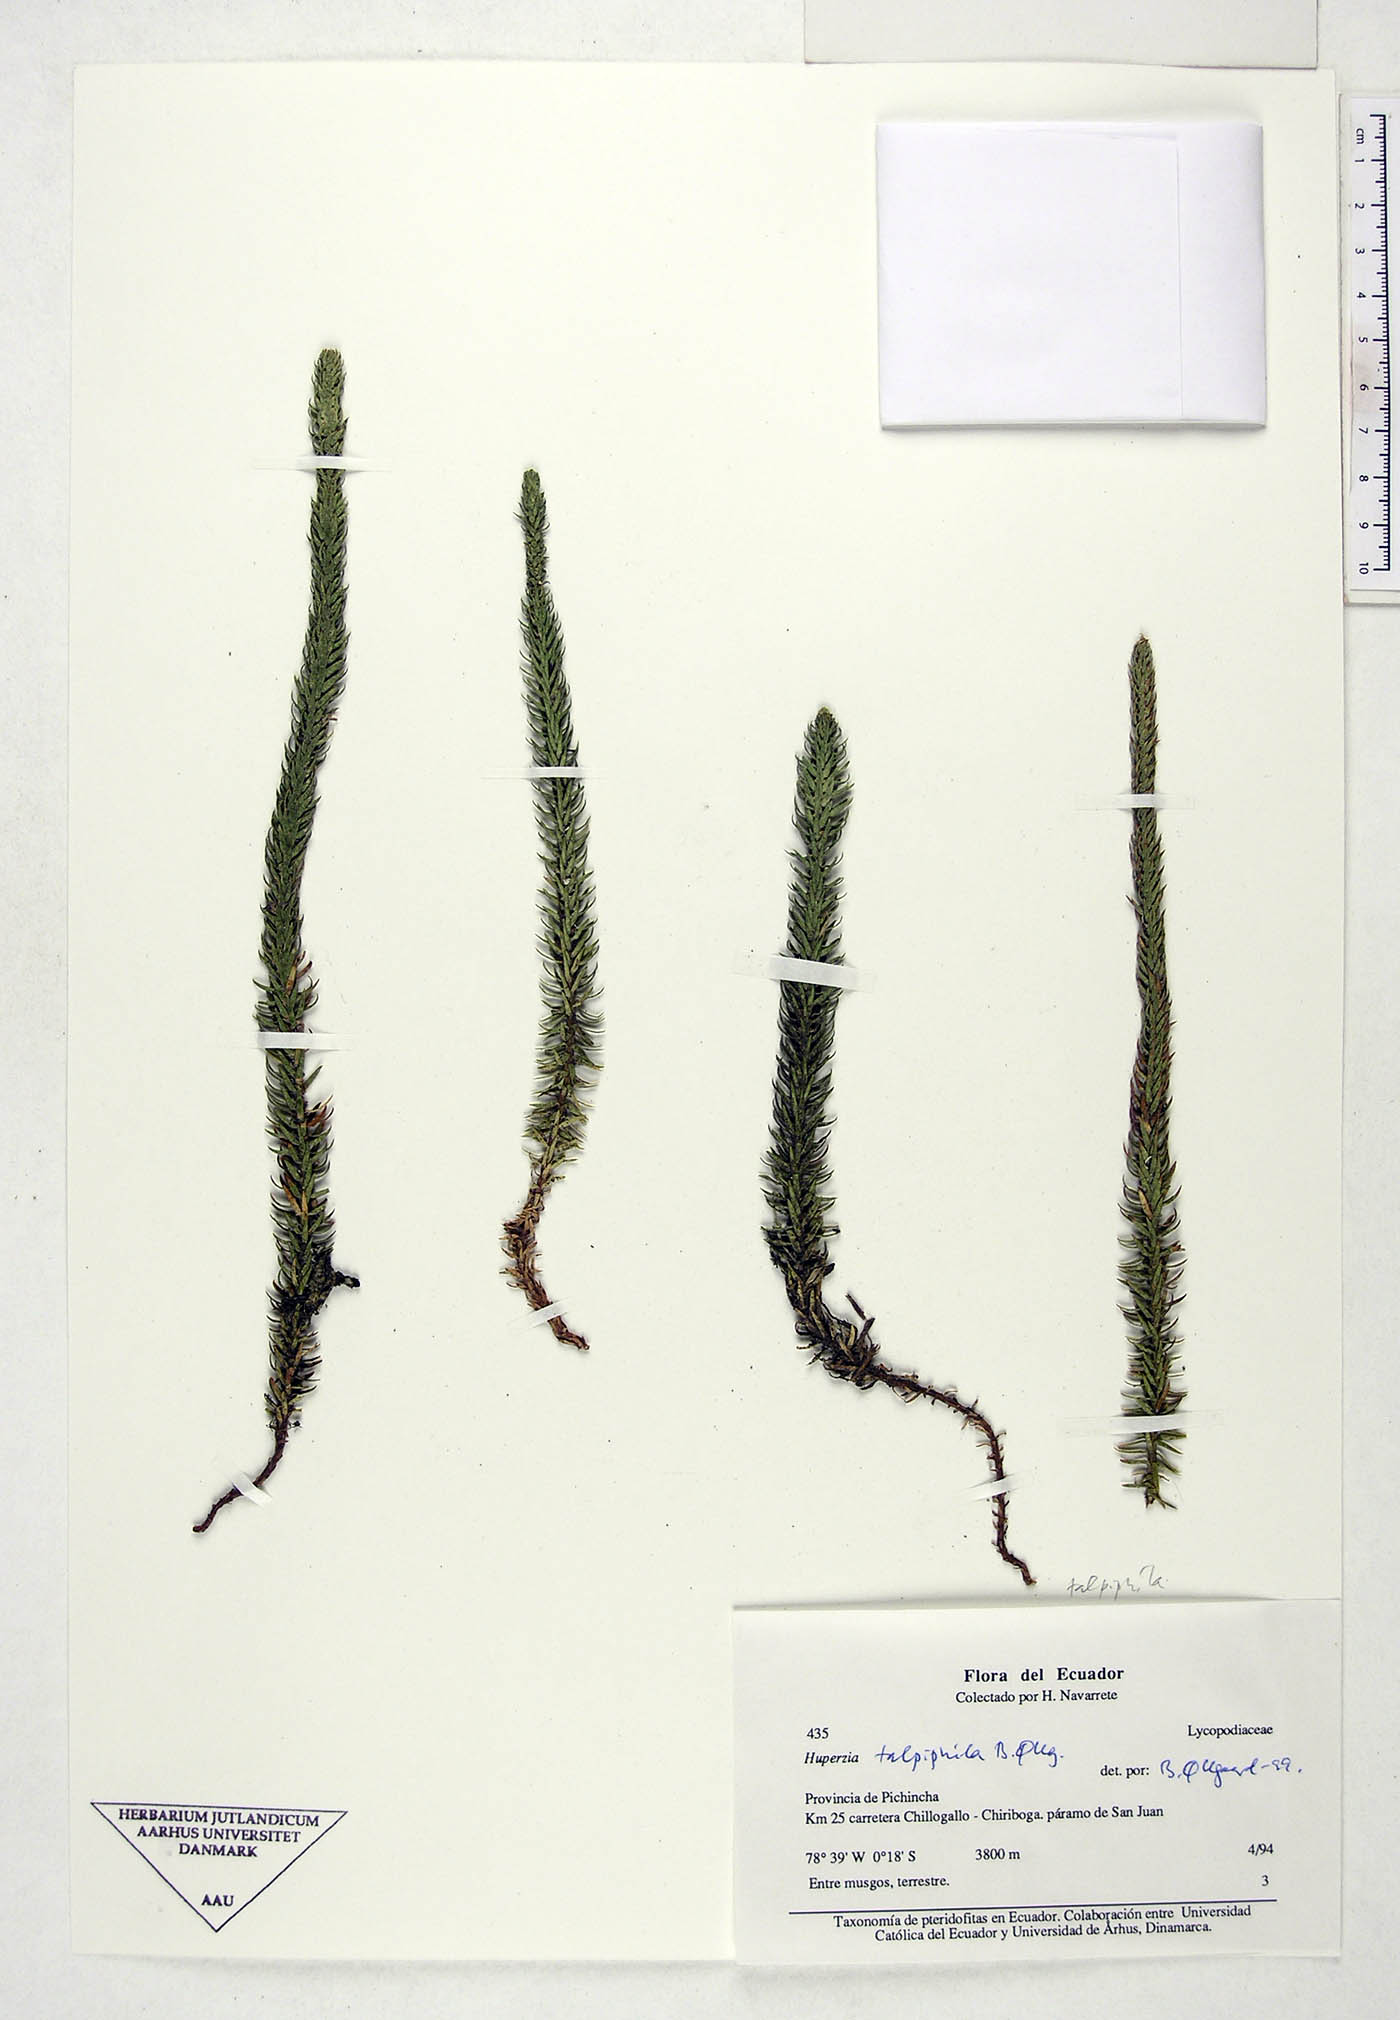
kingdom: Plantae
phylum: Tracheophyta
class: Lycopodiopsida
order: Lycopodiales
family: Lycopodiaceae
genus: Phlegmariurus
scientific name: Phlegmariurus talpiphilus
